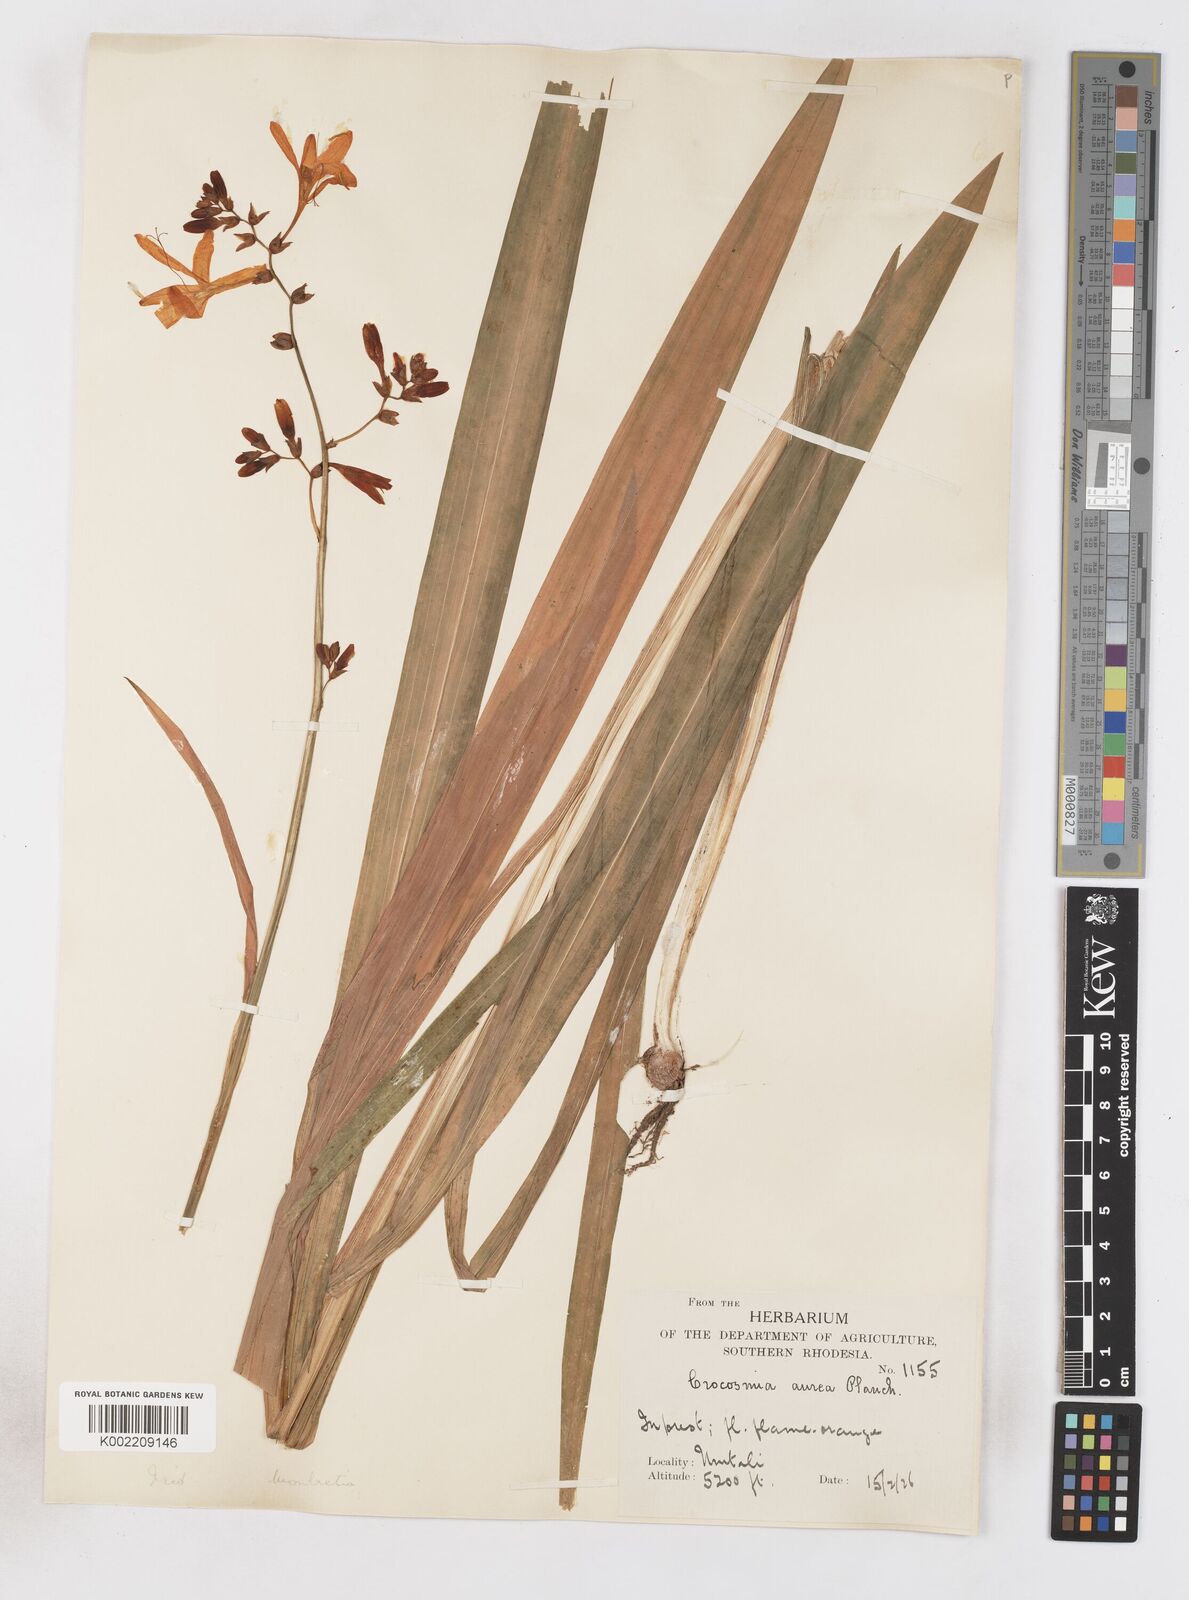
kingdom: Plantae
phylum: Tracheophyta
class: Liliopsida
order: Asparagales
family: Iridaceae
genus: Crocosmia
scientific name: Crocosmia aurea
